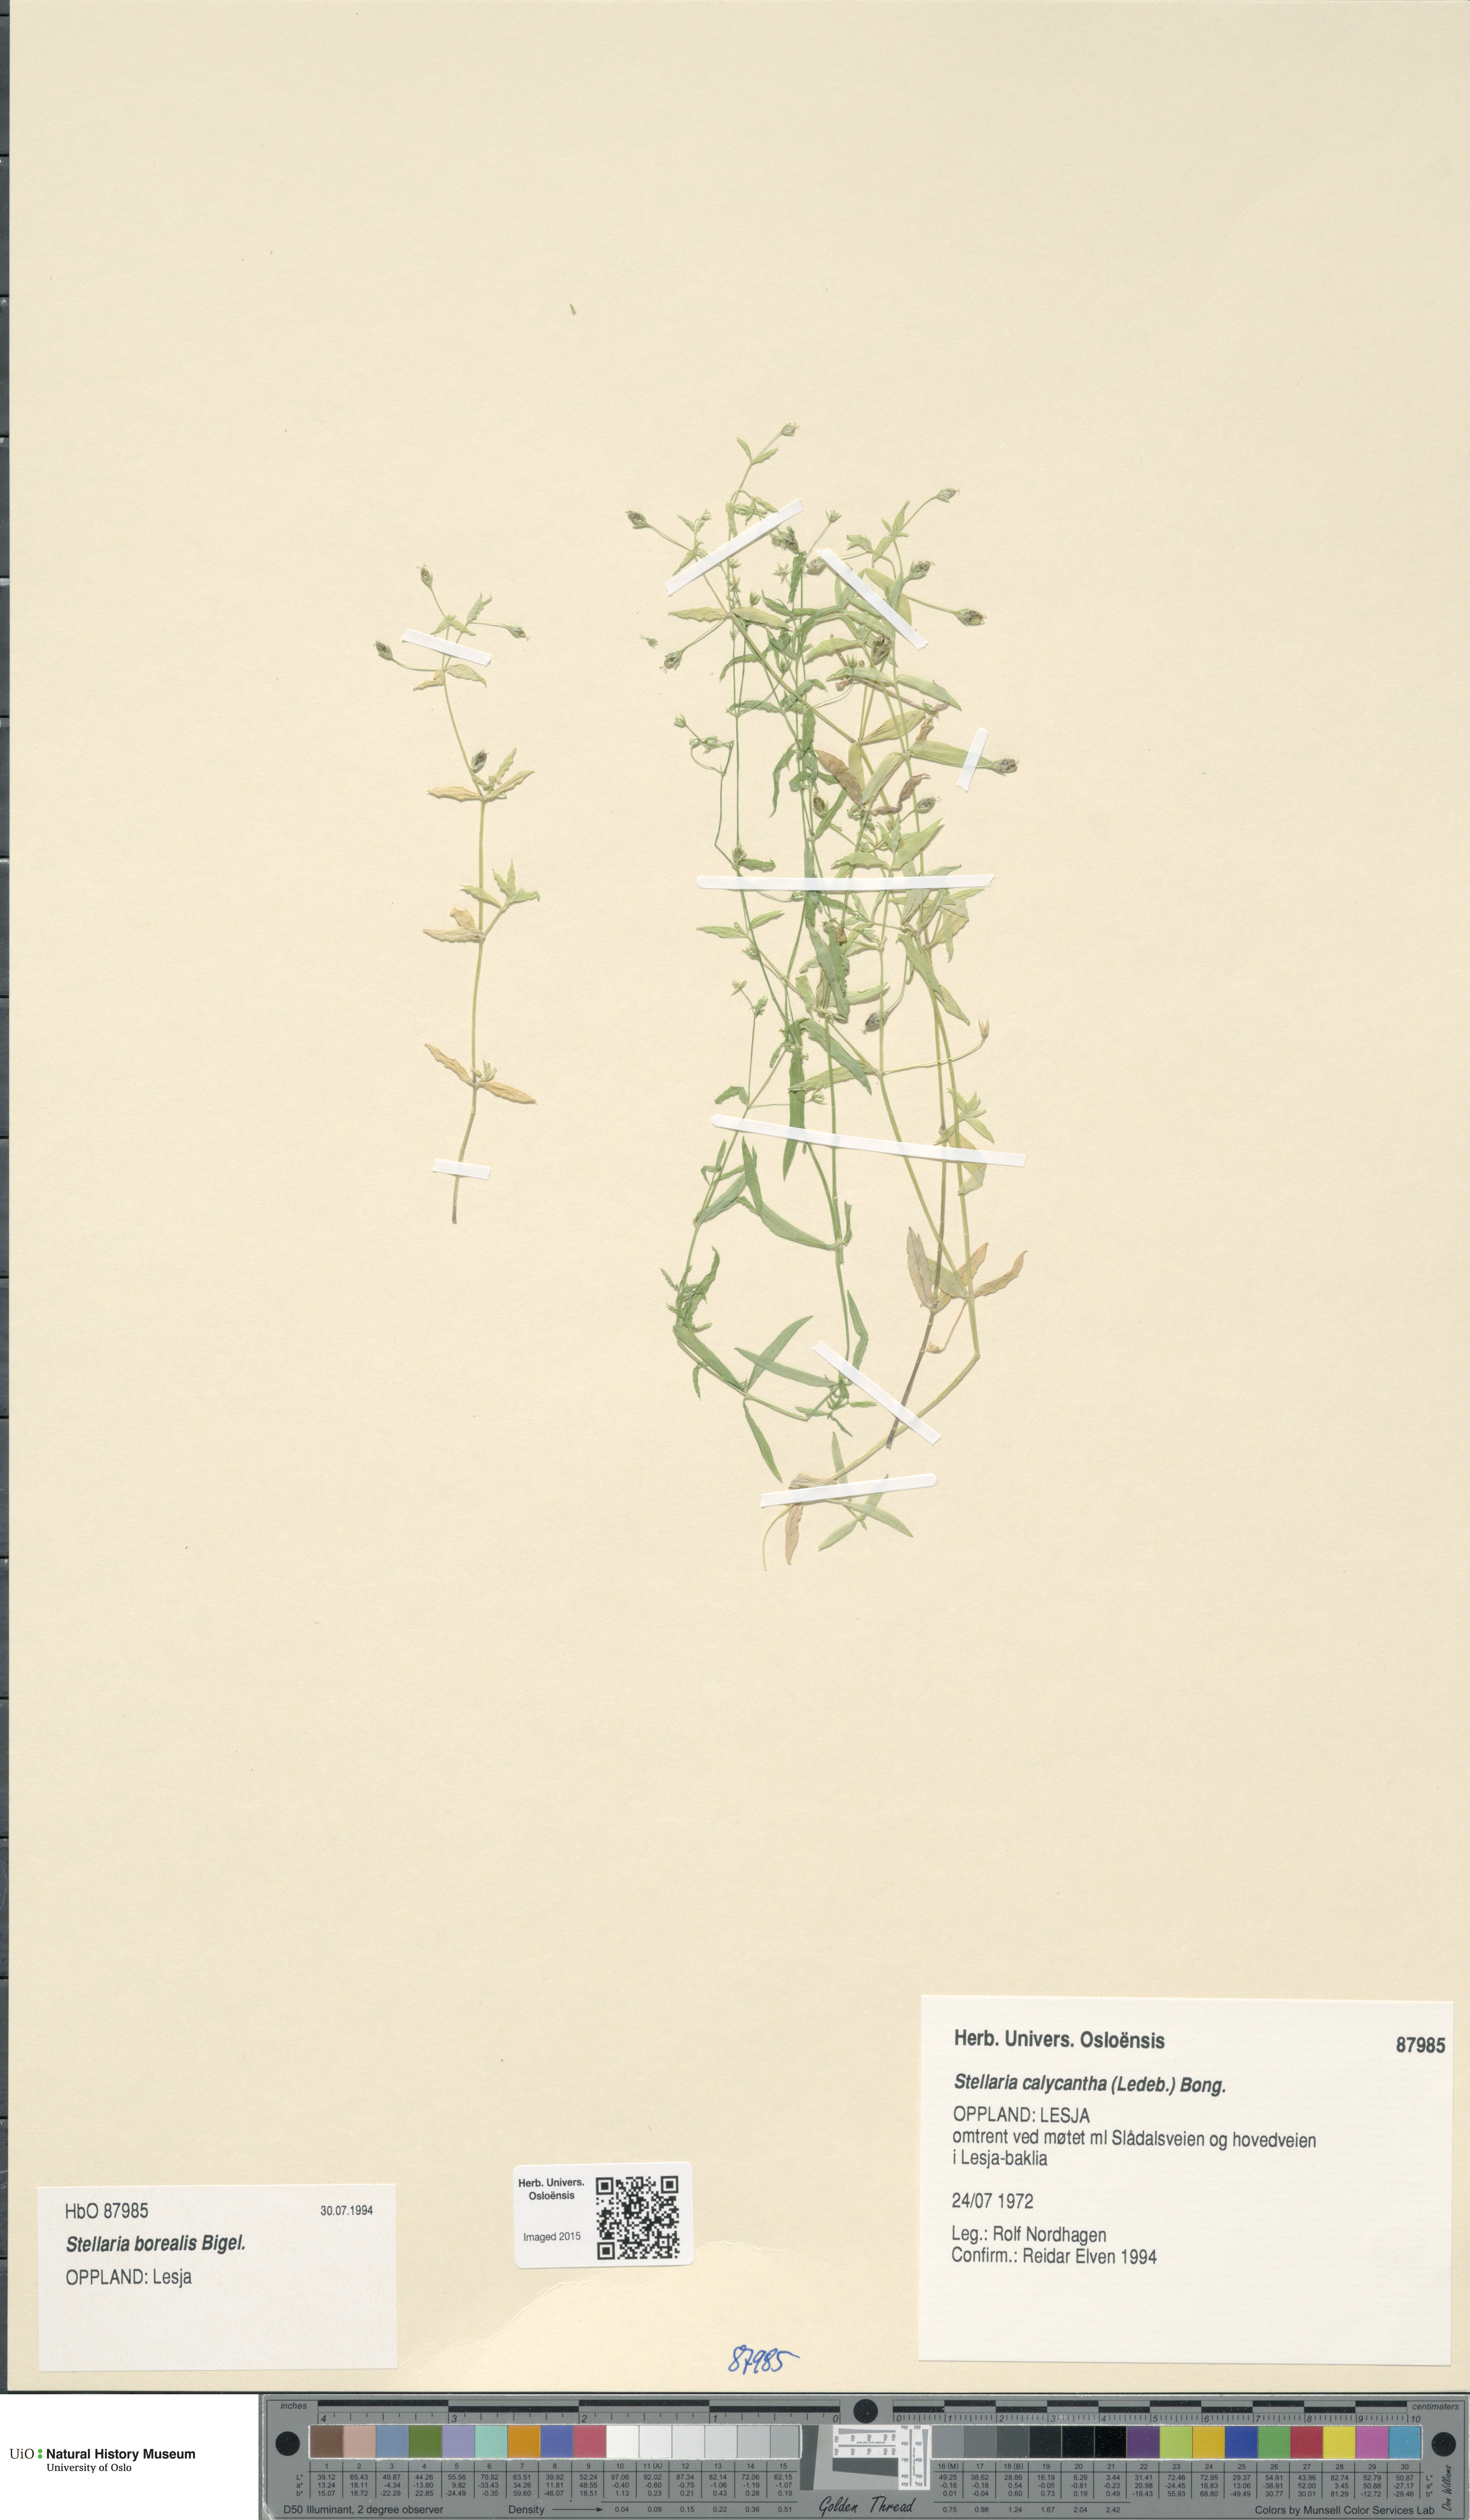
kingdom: Plantae
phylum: Tracheophyta
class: Magnoliopsida
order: Caryophyllales
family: Caryophyllaceae
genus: Stellaria
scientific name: Stellaria borealis
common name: Boreal starwort
